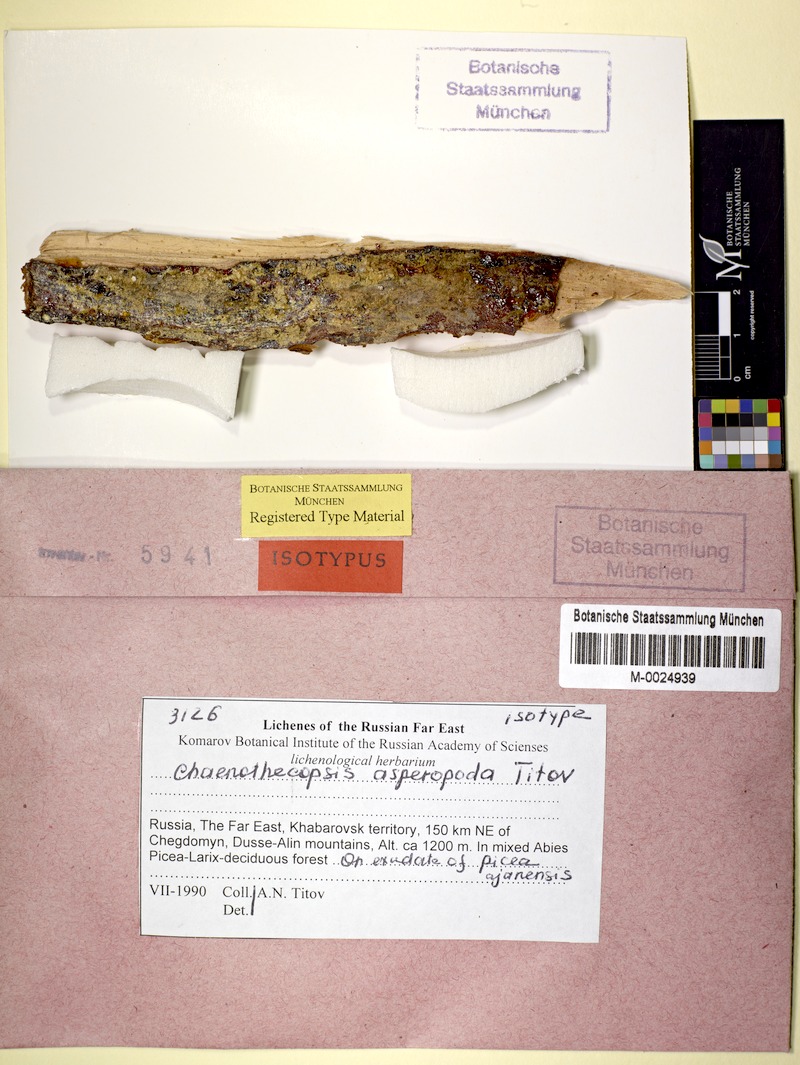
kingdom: Fungi
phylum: Ascomycota
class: Eurotiomycetes
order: Mycocaliciales
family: Mycocaliciaceae
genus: Chaenothecopsis
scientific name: Chaenothecopsis asperopoda
